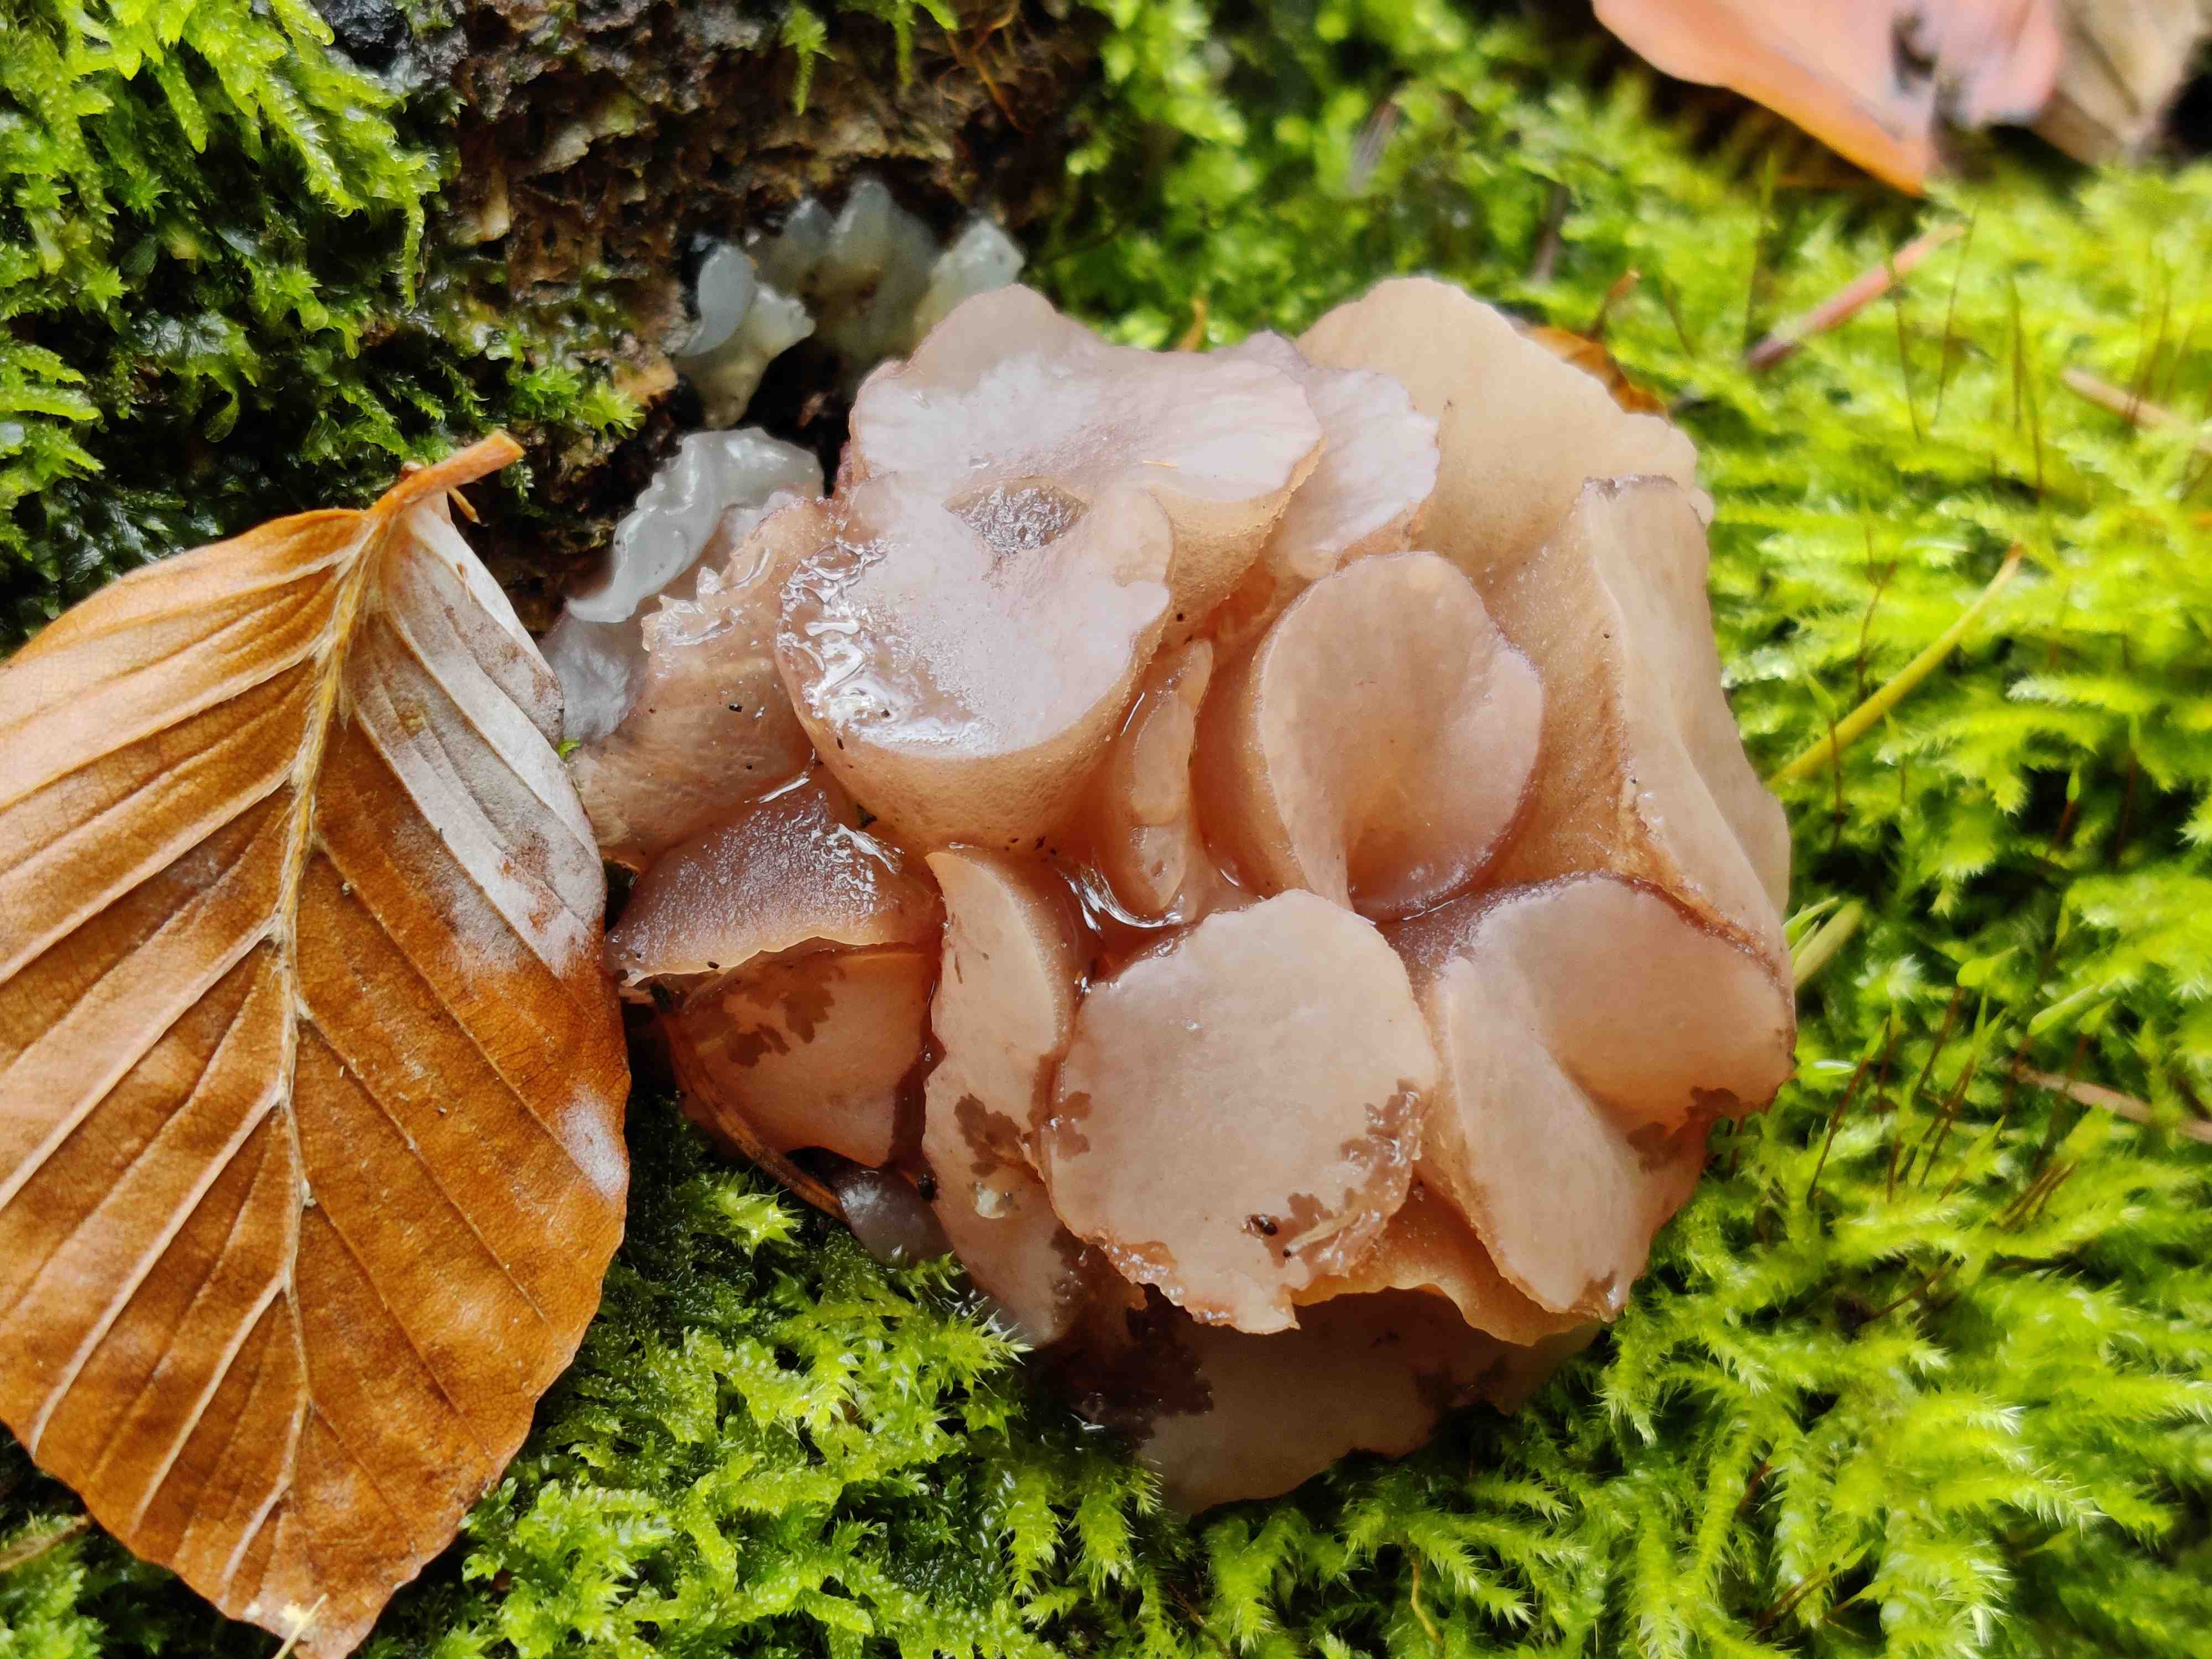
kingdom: Fungi
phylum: Ascomycota
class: Leotiomycetes
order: Helotiales
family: Gelatinodiscaceae
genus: Neobulgaria
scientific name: Neobulgaria pura
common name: bleg bævreskive
